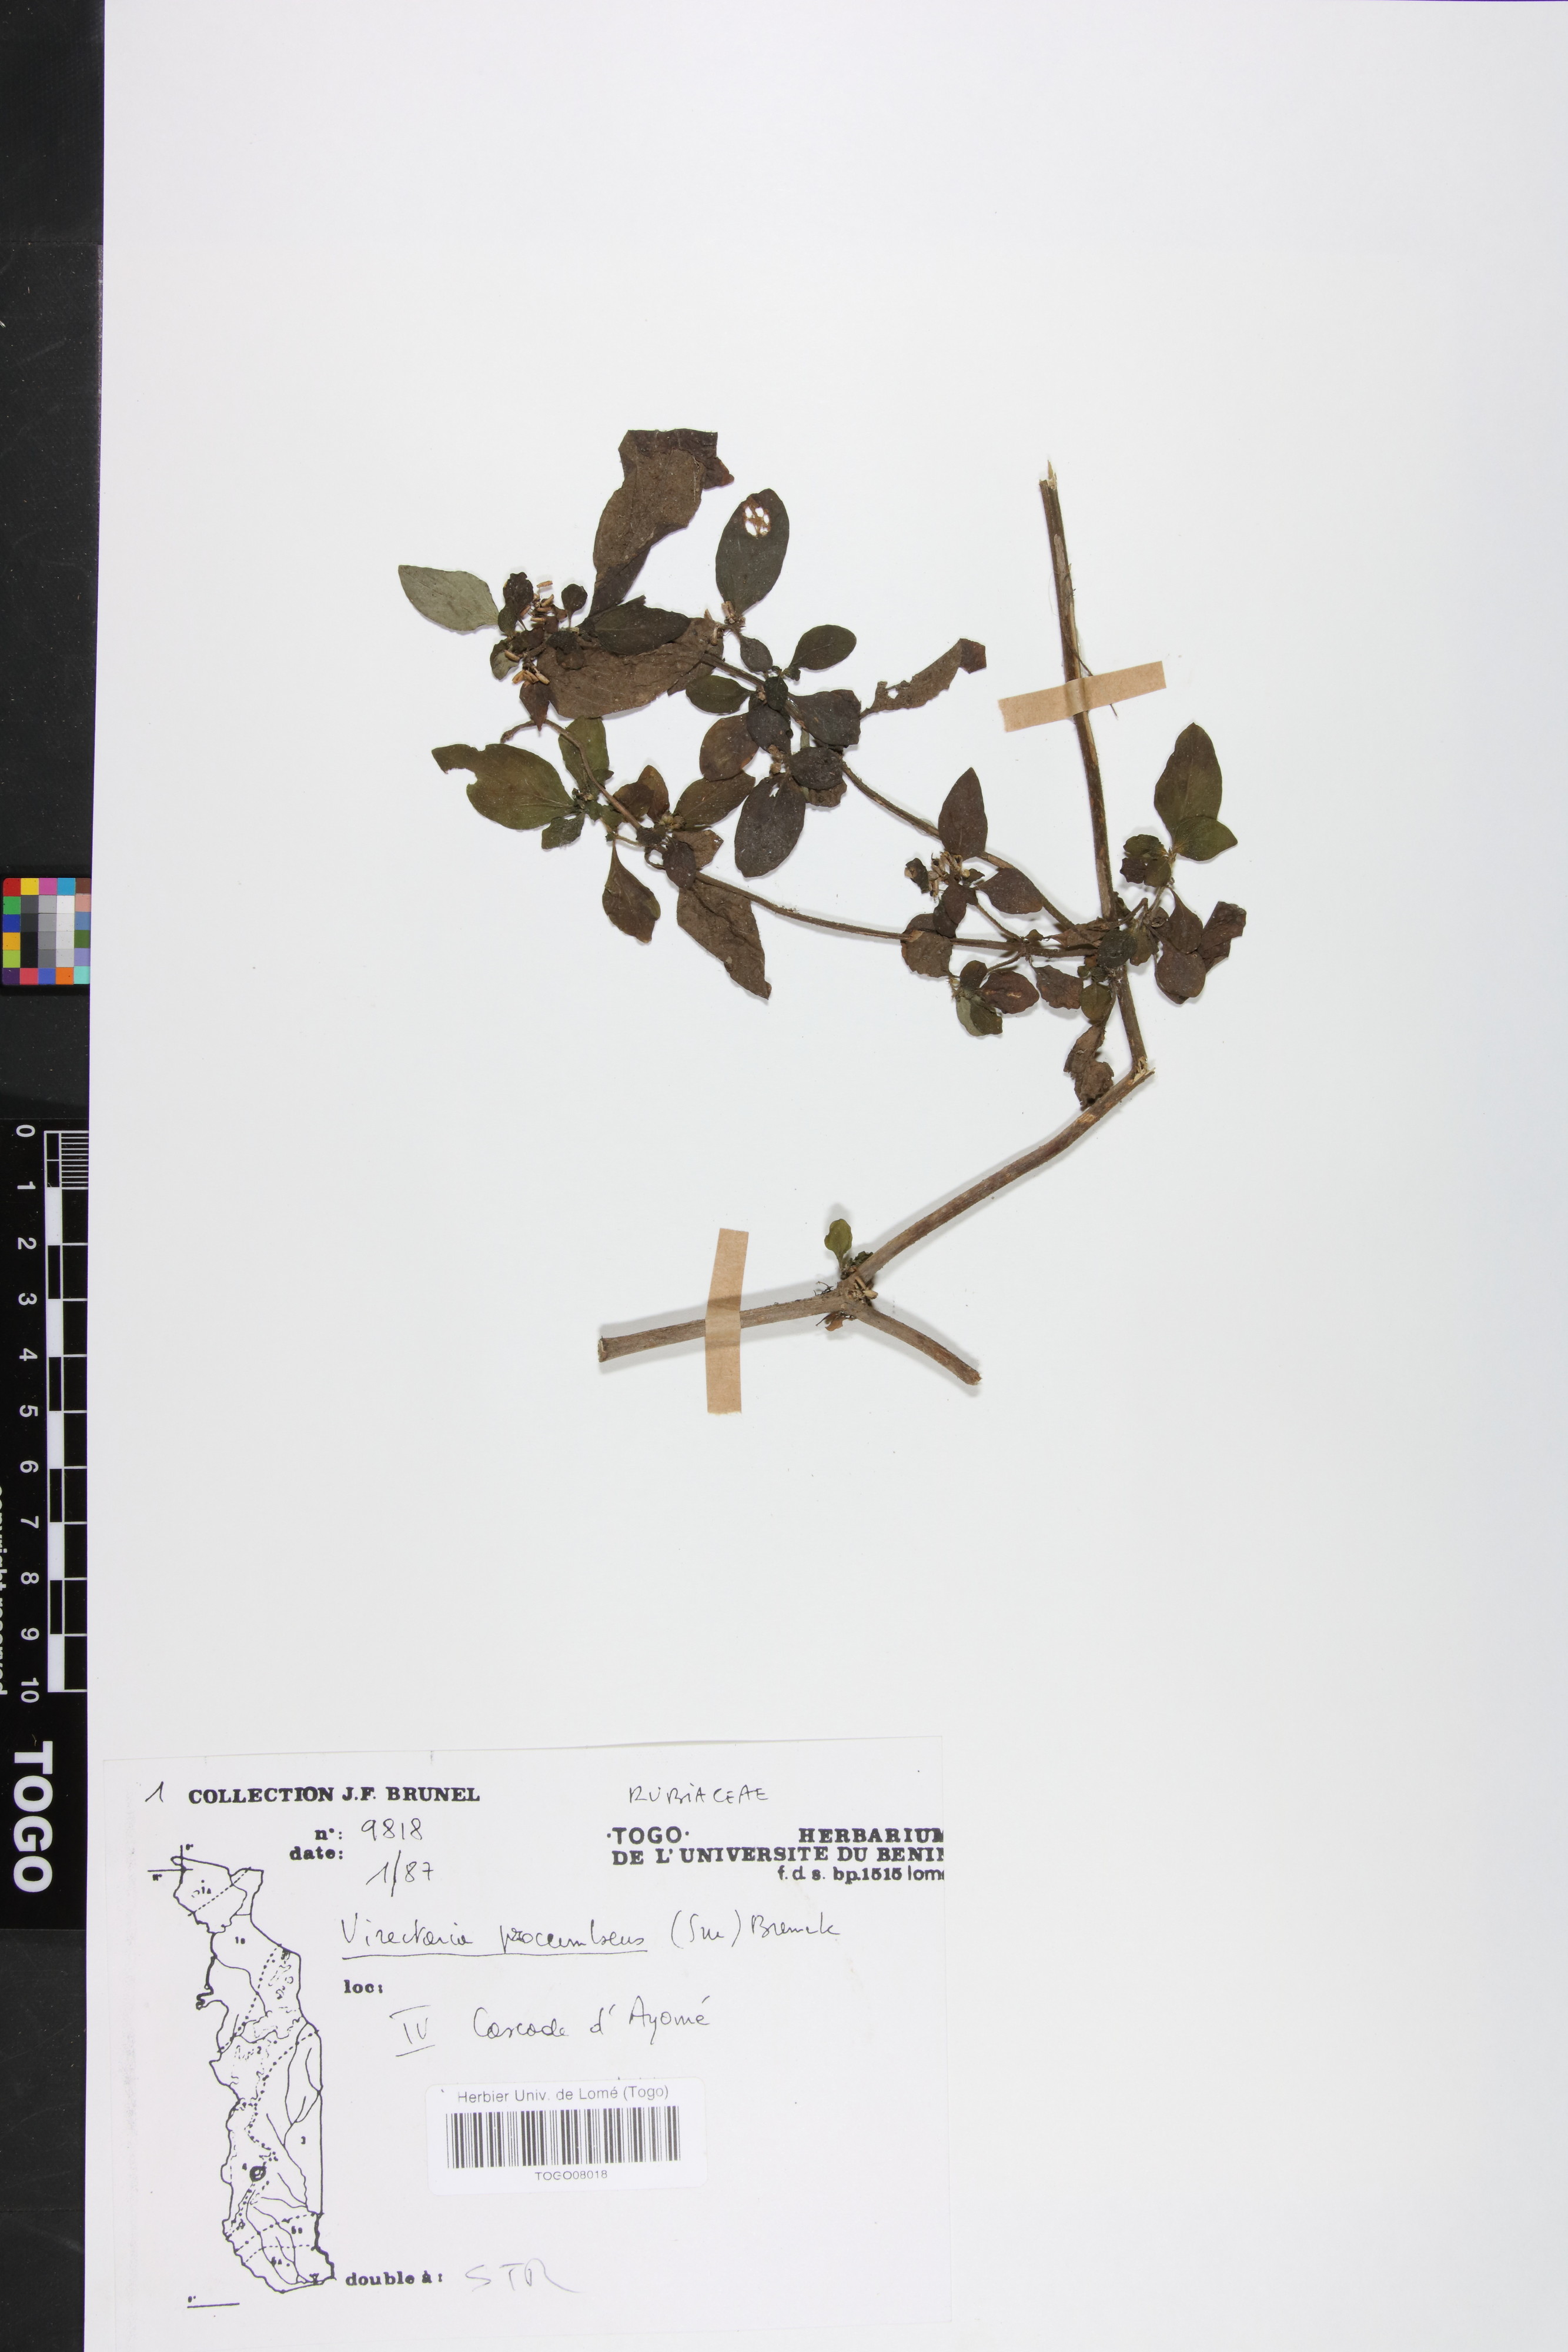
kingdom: Plantae
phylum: Tracheophyta
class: Magnoliopsida
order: Gentianales
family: Rubiaceae
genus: Virectaria
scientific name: Virectaria procumbens
